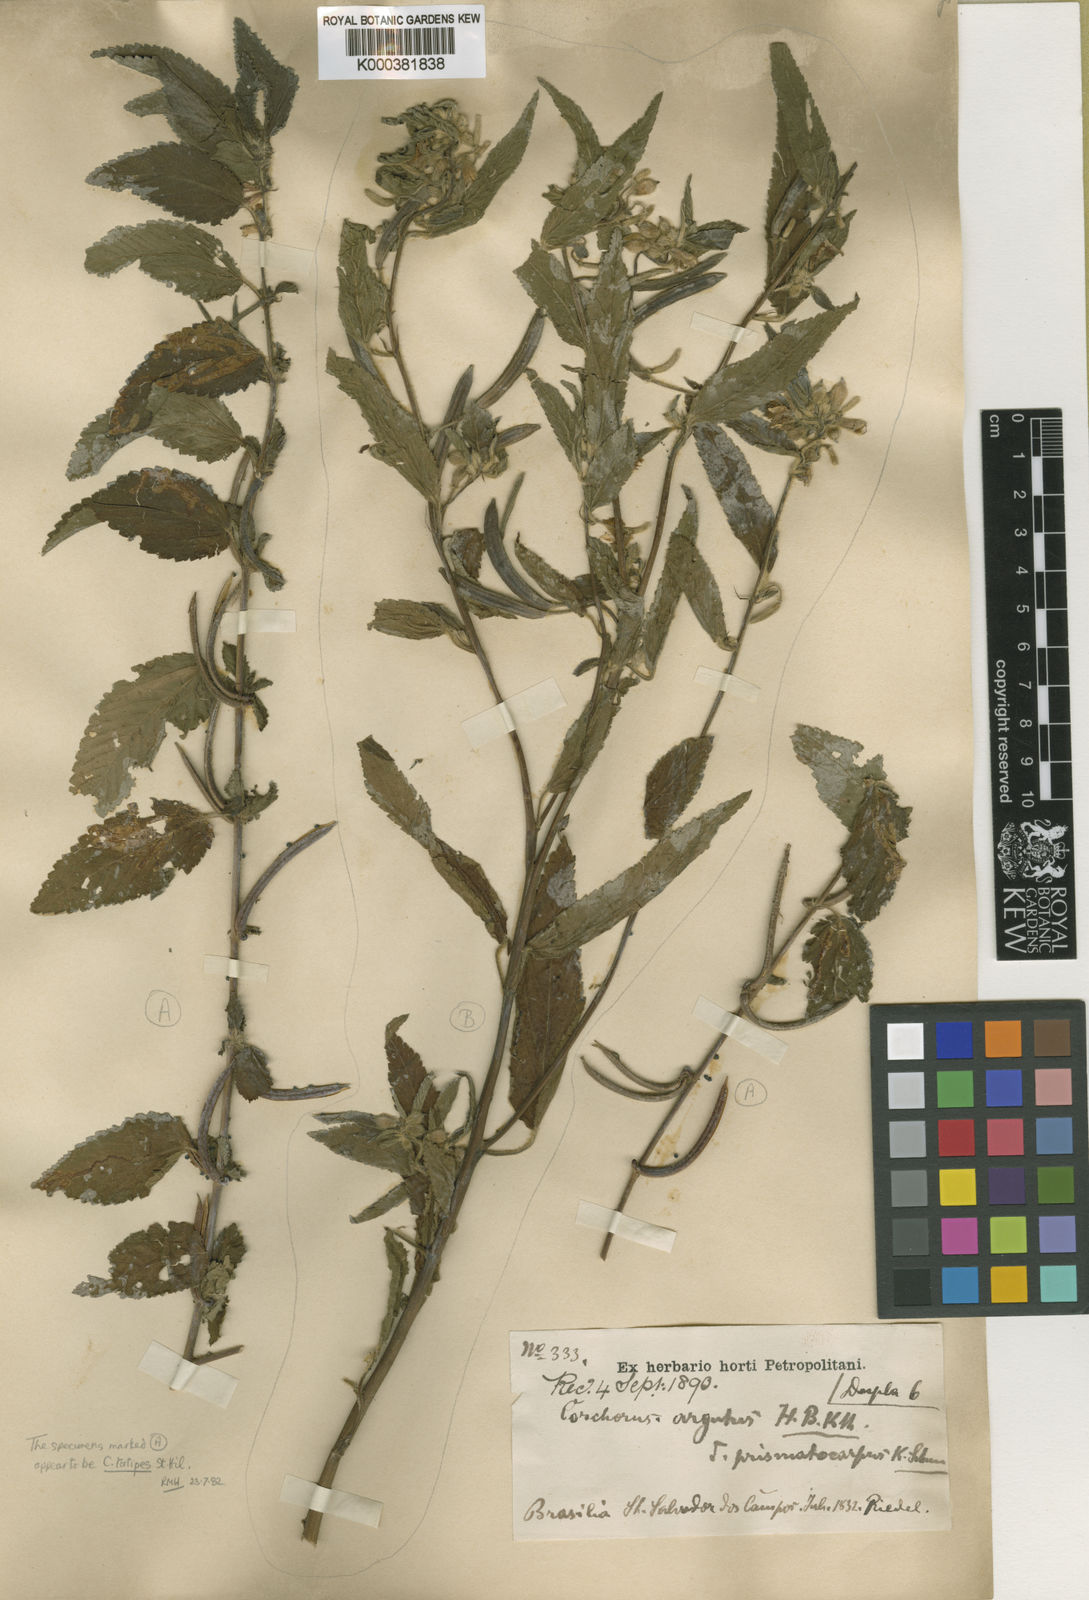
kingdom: Plantae
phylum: Tracheophyta
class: Magnoliopsida
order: Malvales
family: Malvaceae
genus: Corchorus
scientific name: Corchorus argutus
